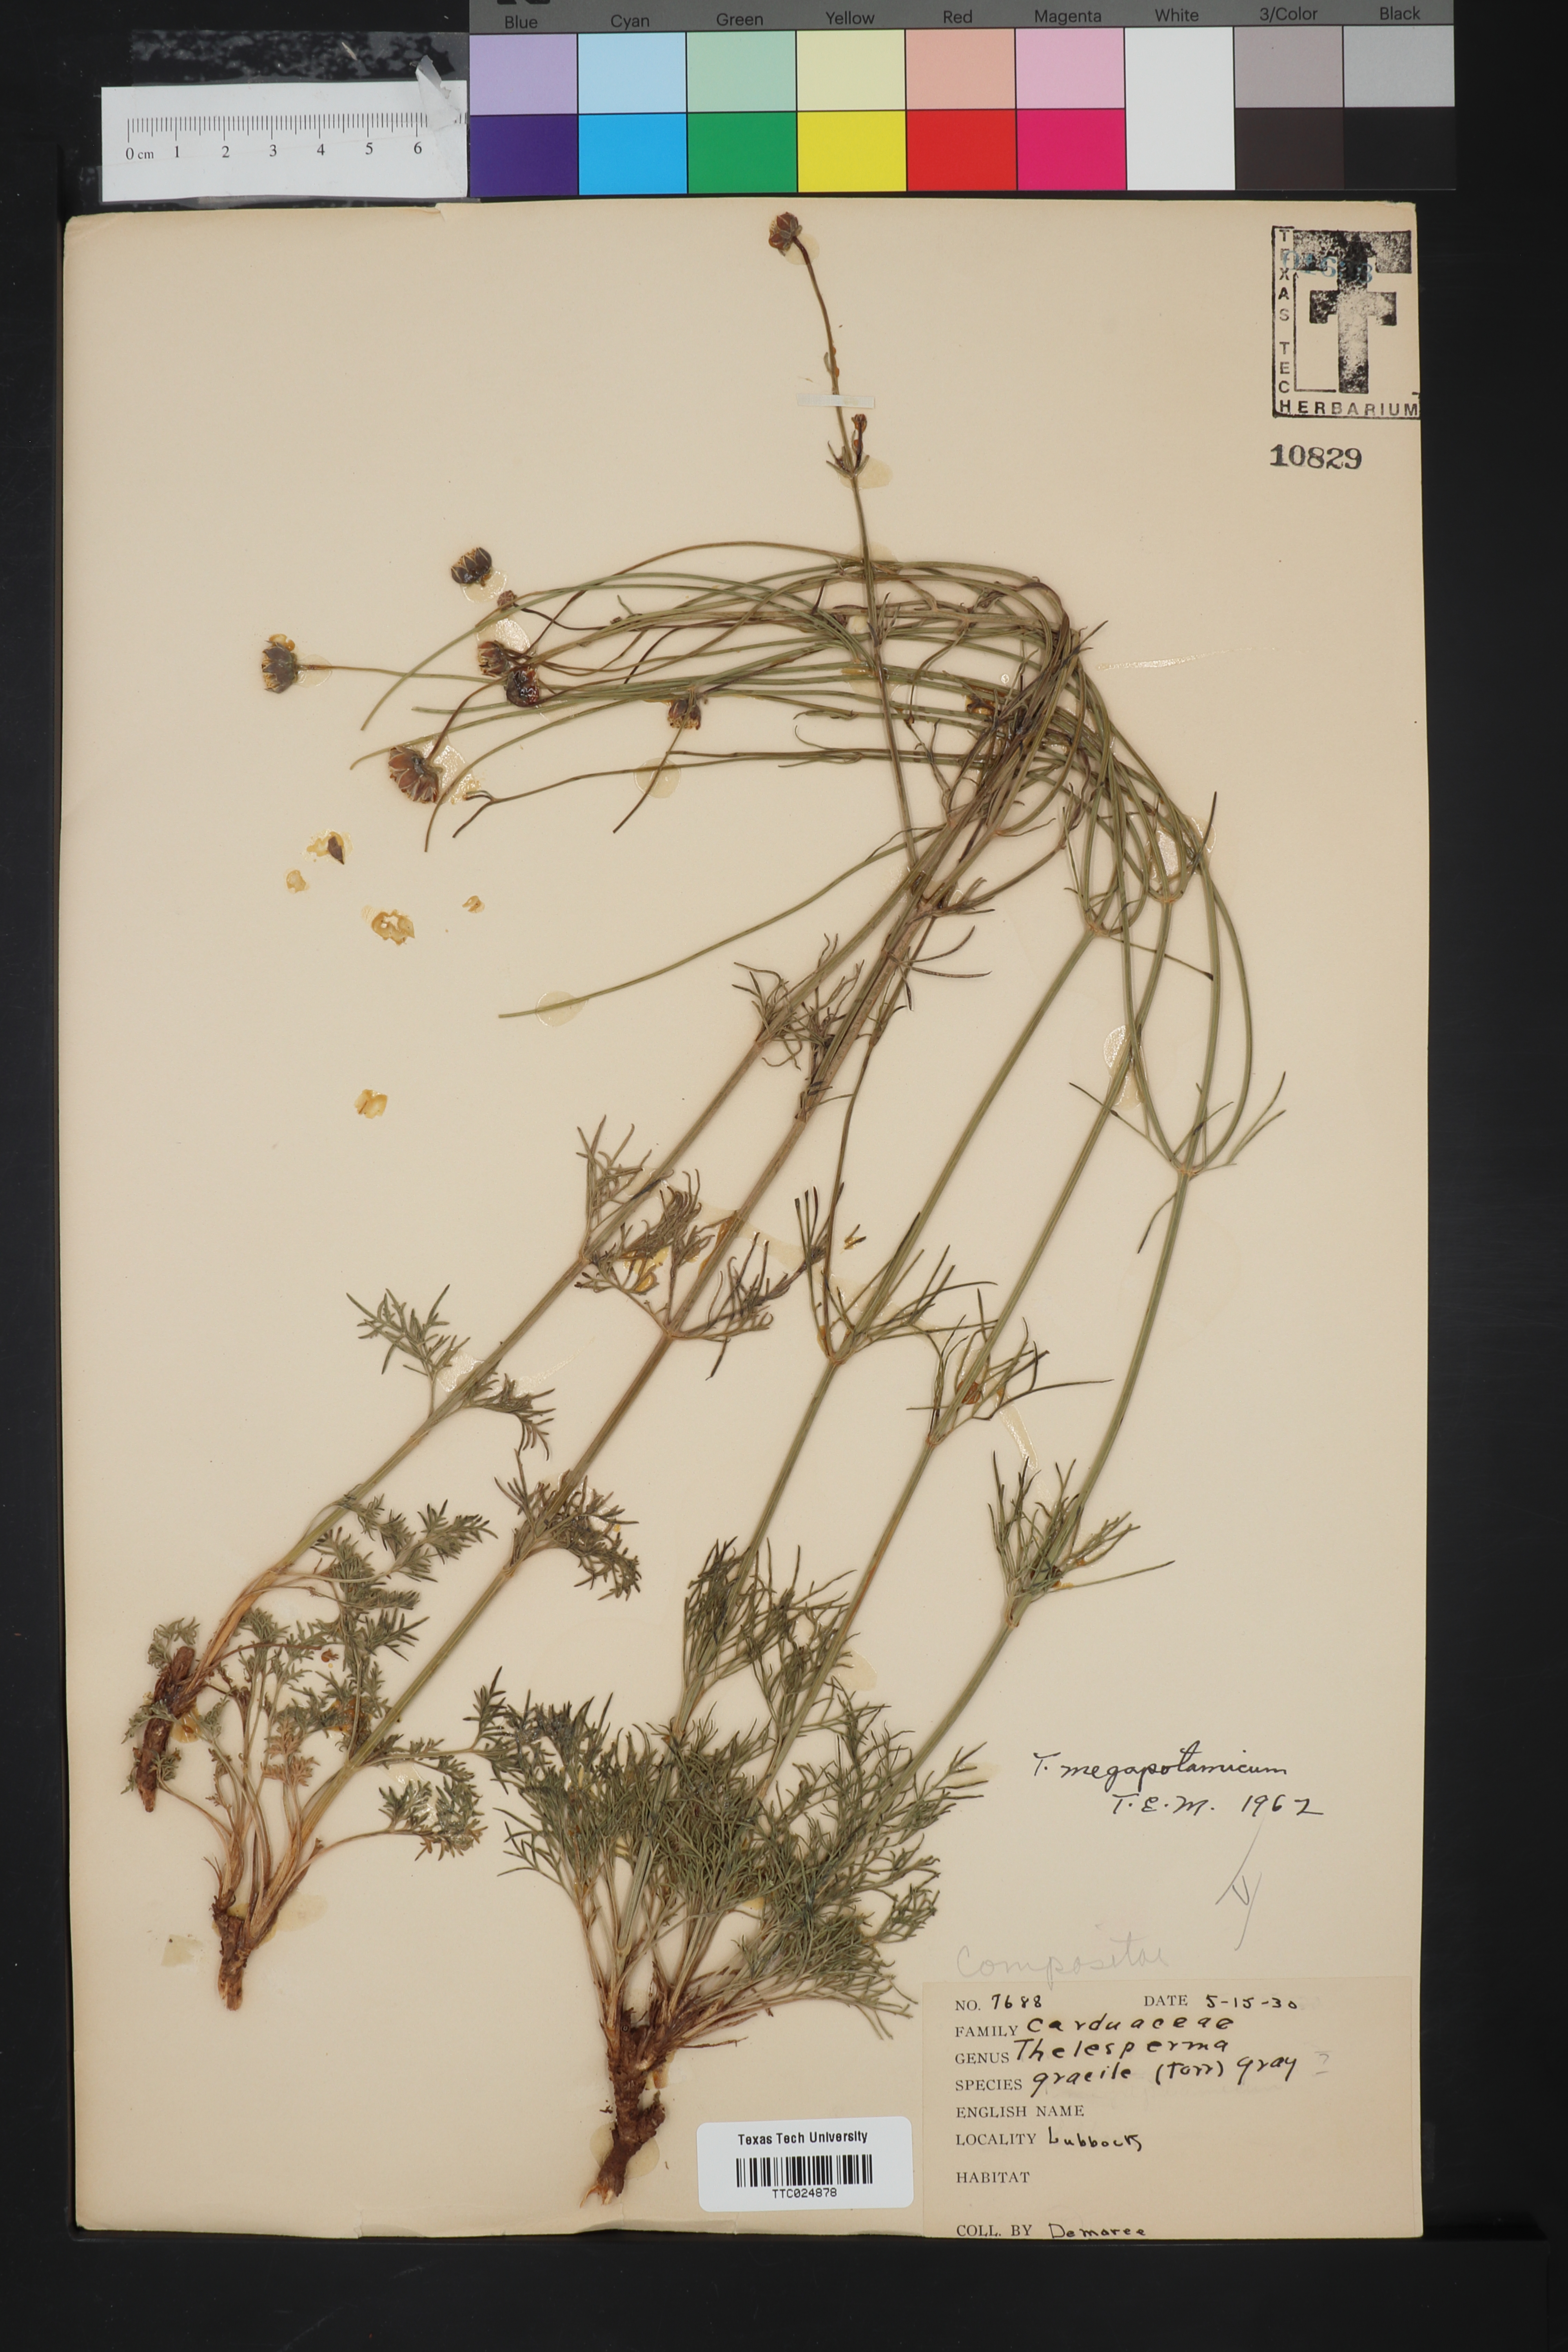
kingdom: Plantae
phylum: Tracheophyta
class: Magnoliopsida
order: Asterales
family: Asteraceae
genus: Thelesperma
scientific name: Thelesperma megapotamicum
